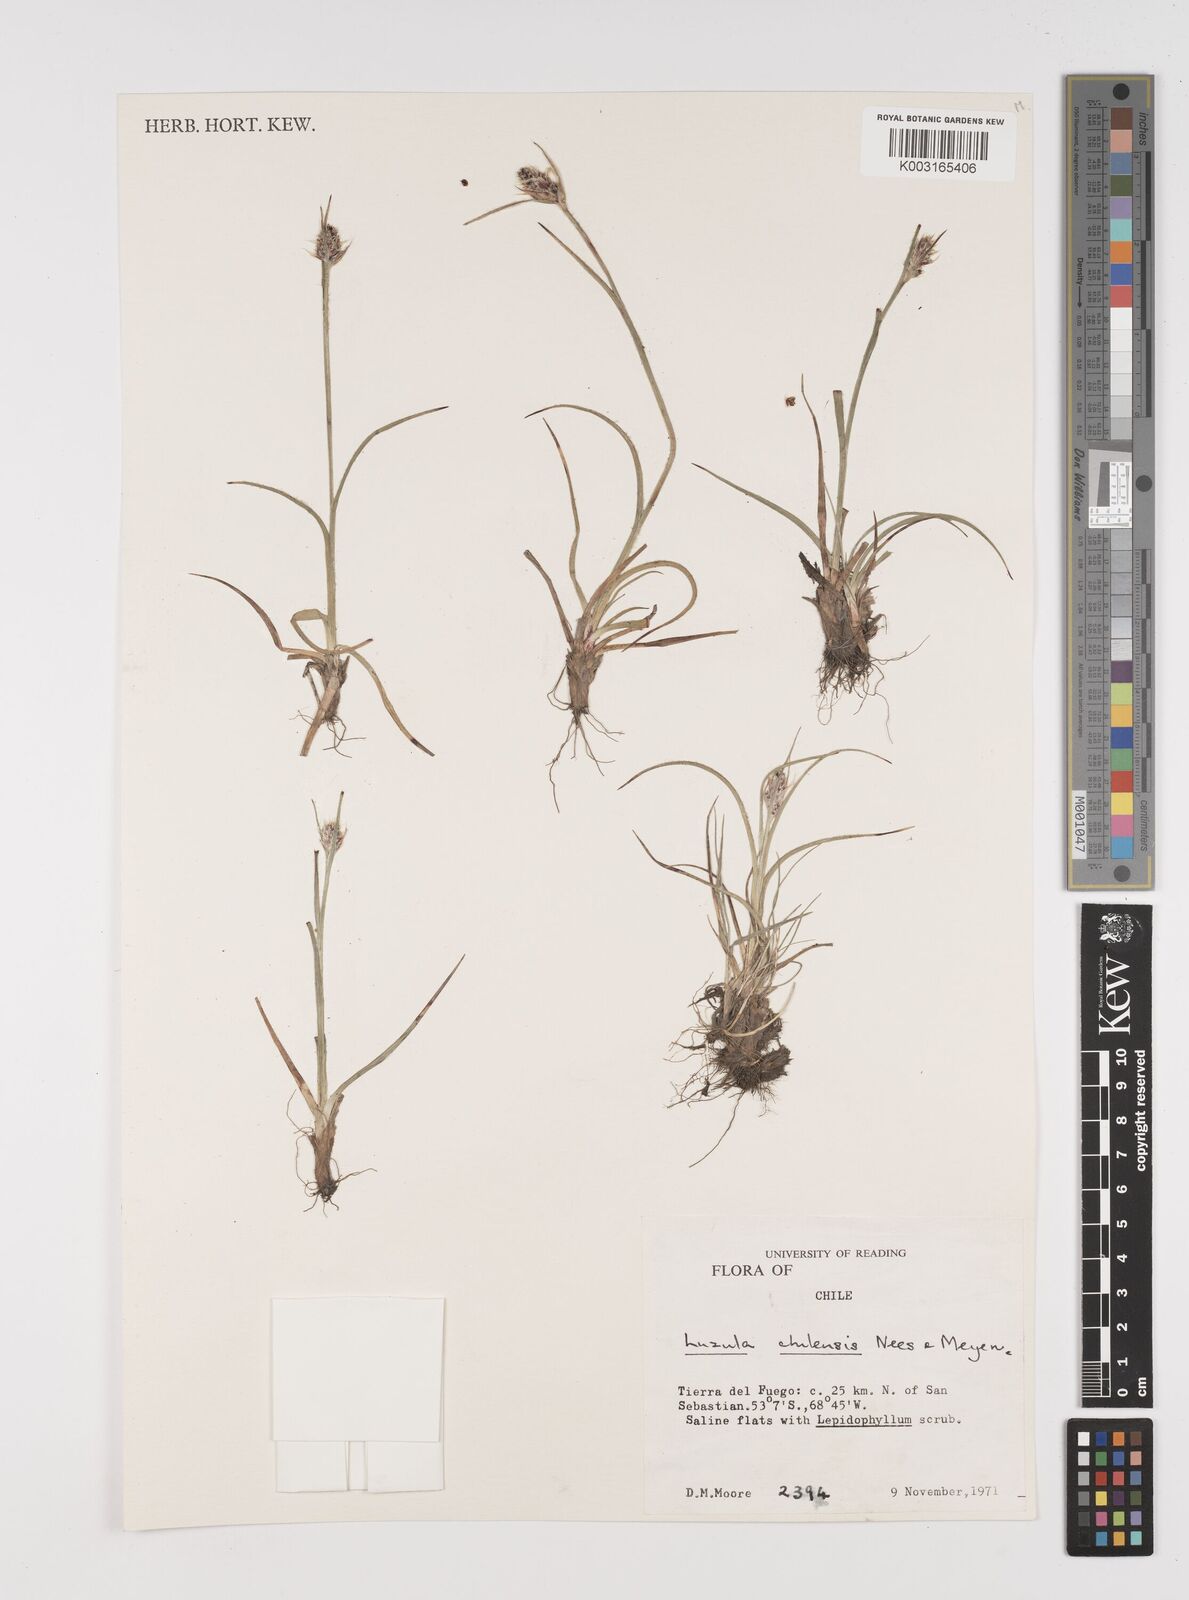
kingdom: Plantae
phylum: Tracheophyta
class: Liliopsida
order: Poales
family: Juncaceae
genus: Luzula
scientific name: Luzula chilensis
